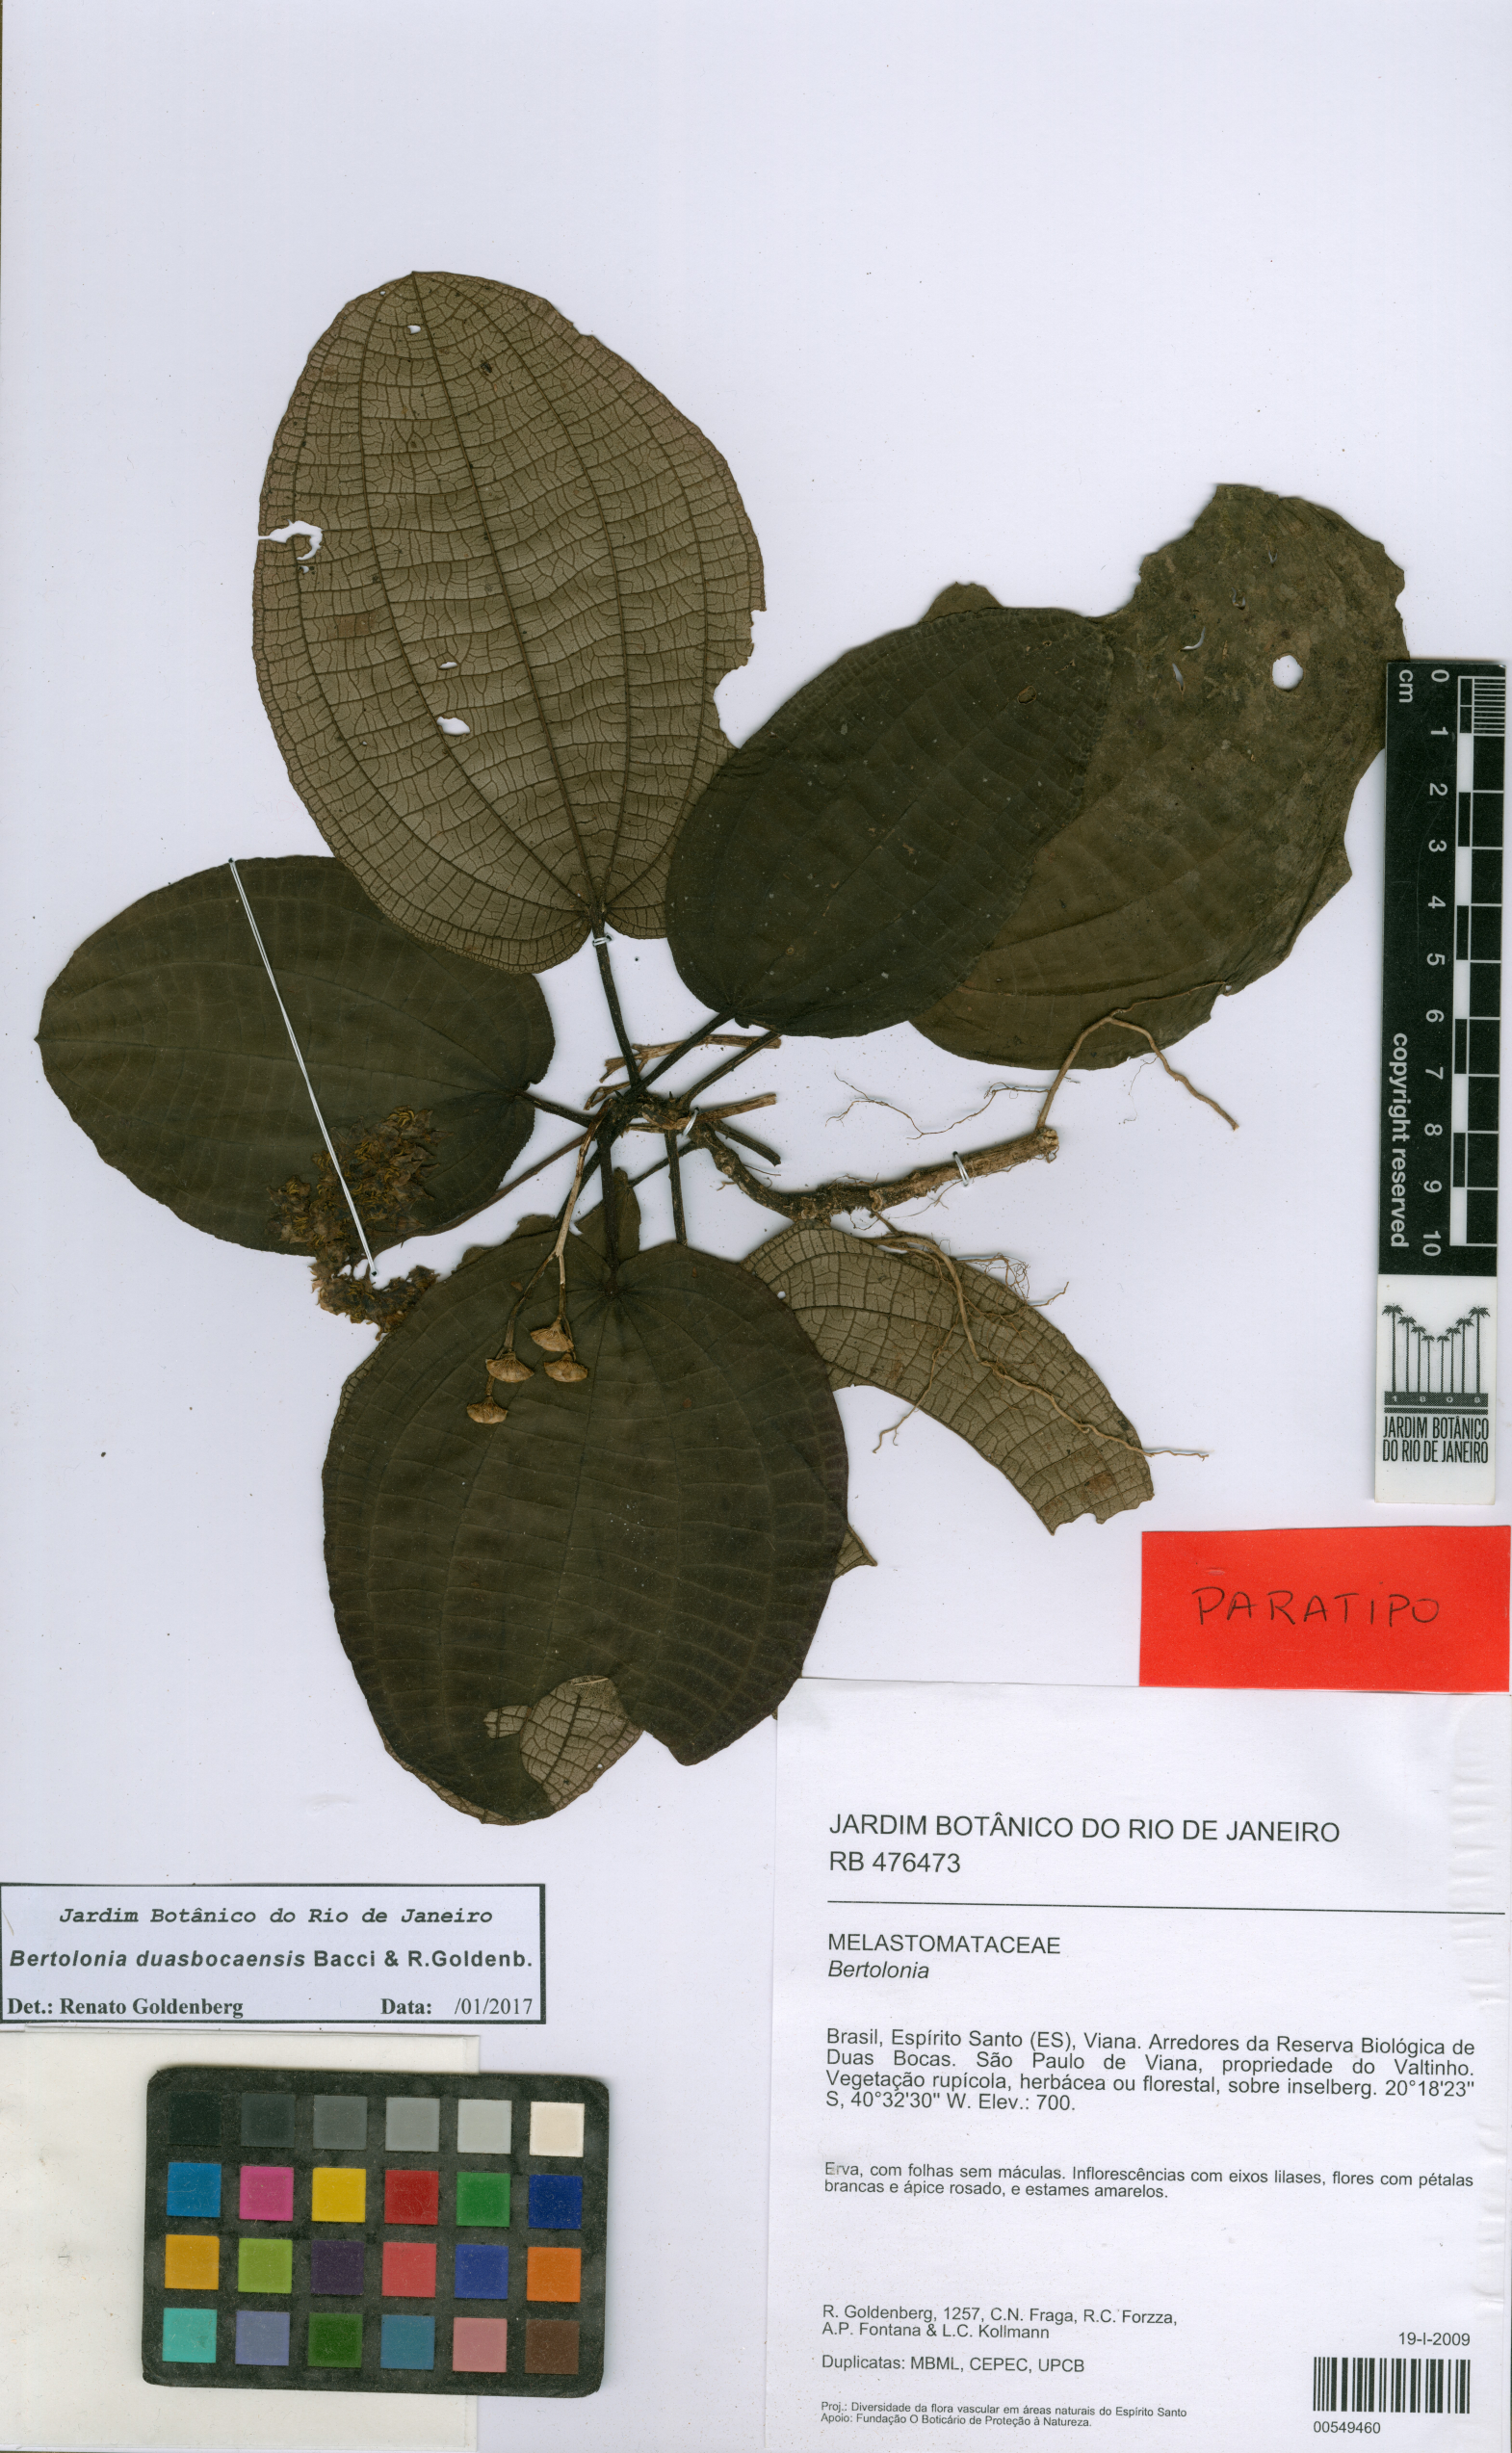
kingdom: Plantae
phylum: Tracheophyta
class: Magnoliopsida
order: Myrtales
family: Melastomataceae
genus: Bertolonia
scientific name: Bertolonia duasbocaensis
